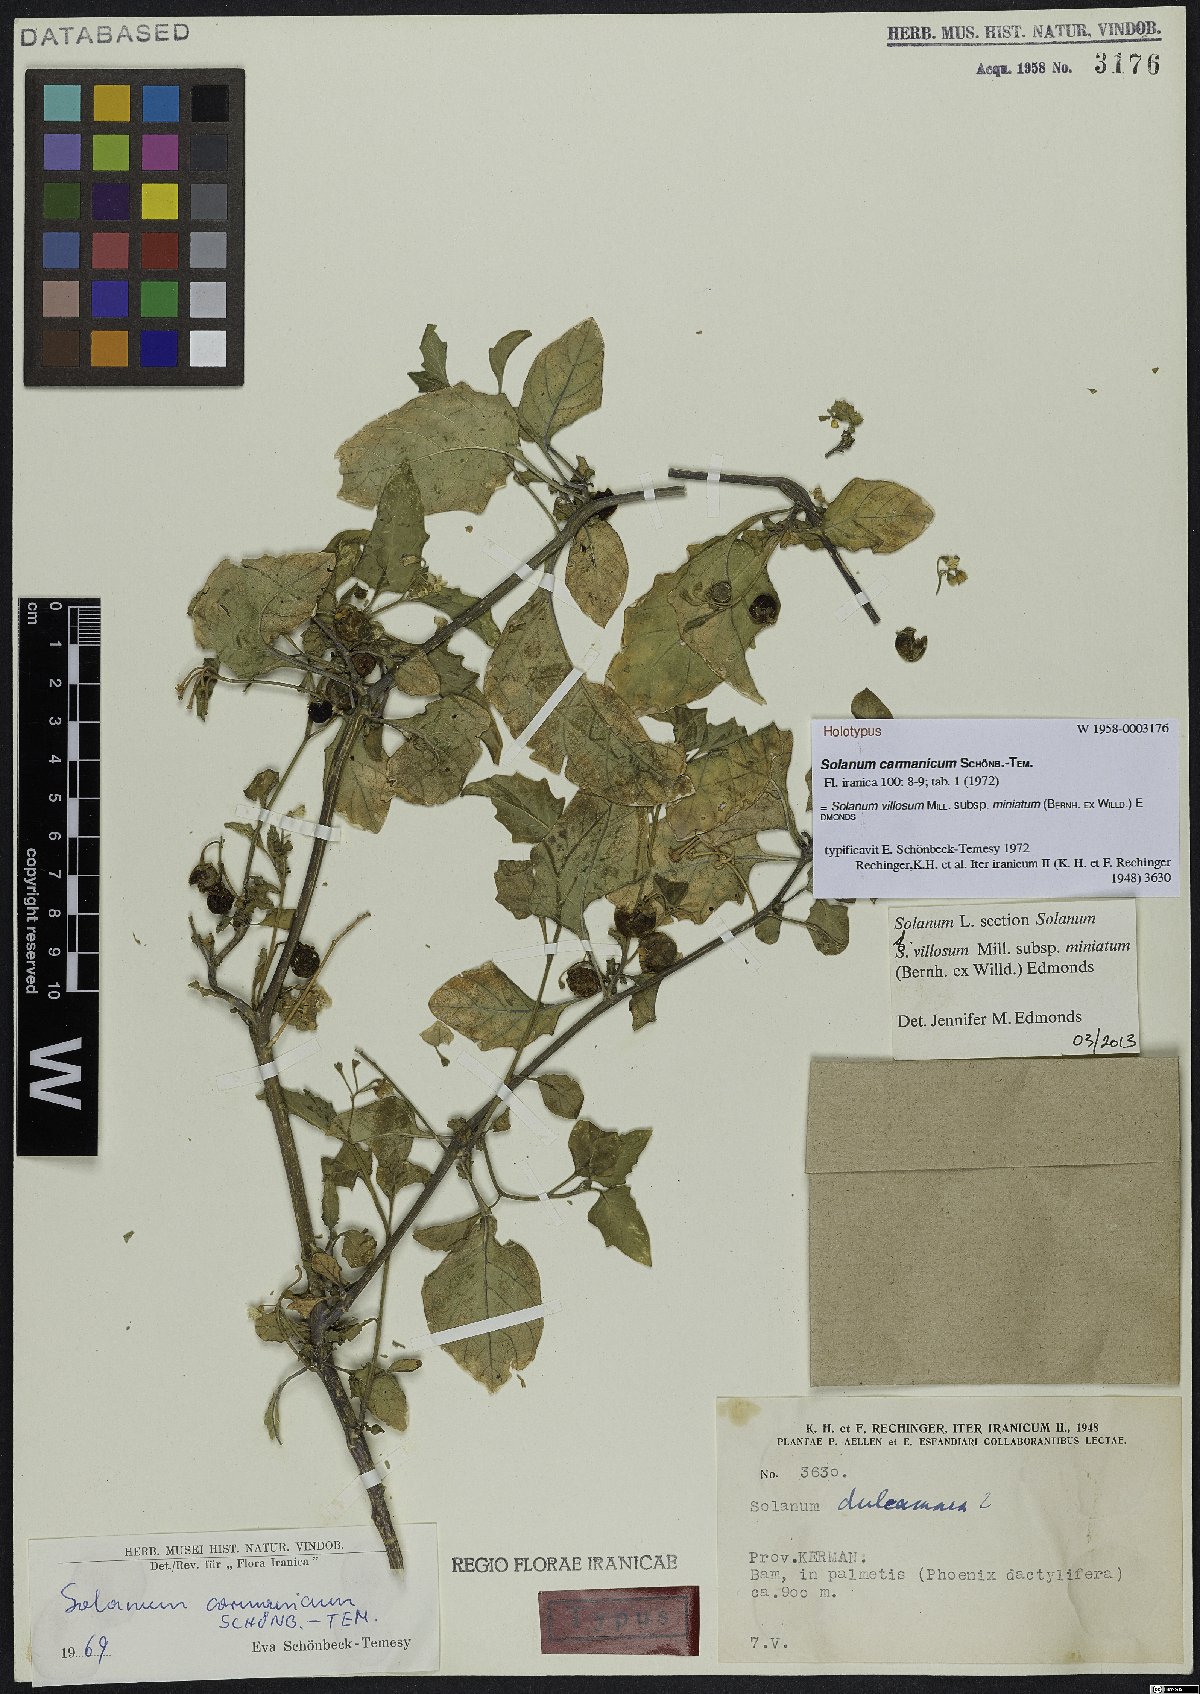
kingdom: Plantae
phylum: Tracheophyta
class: Magnoliopsida
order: Solanales
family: Solanaceae
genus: Solanum
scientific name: Solanum villosum
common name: Red nightshade
